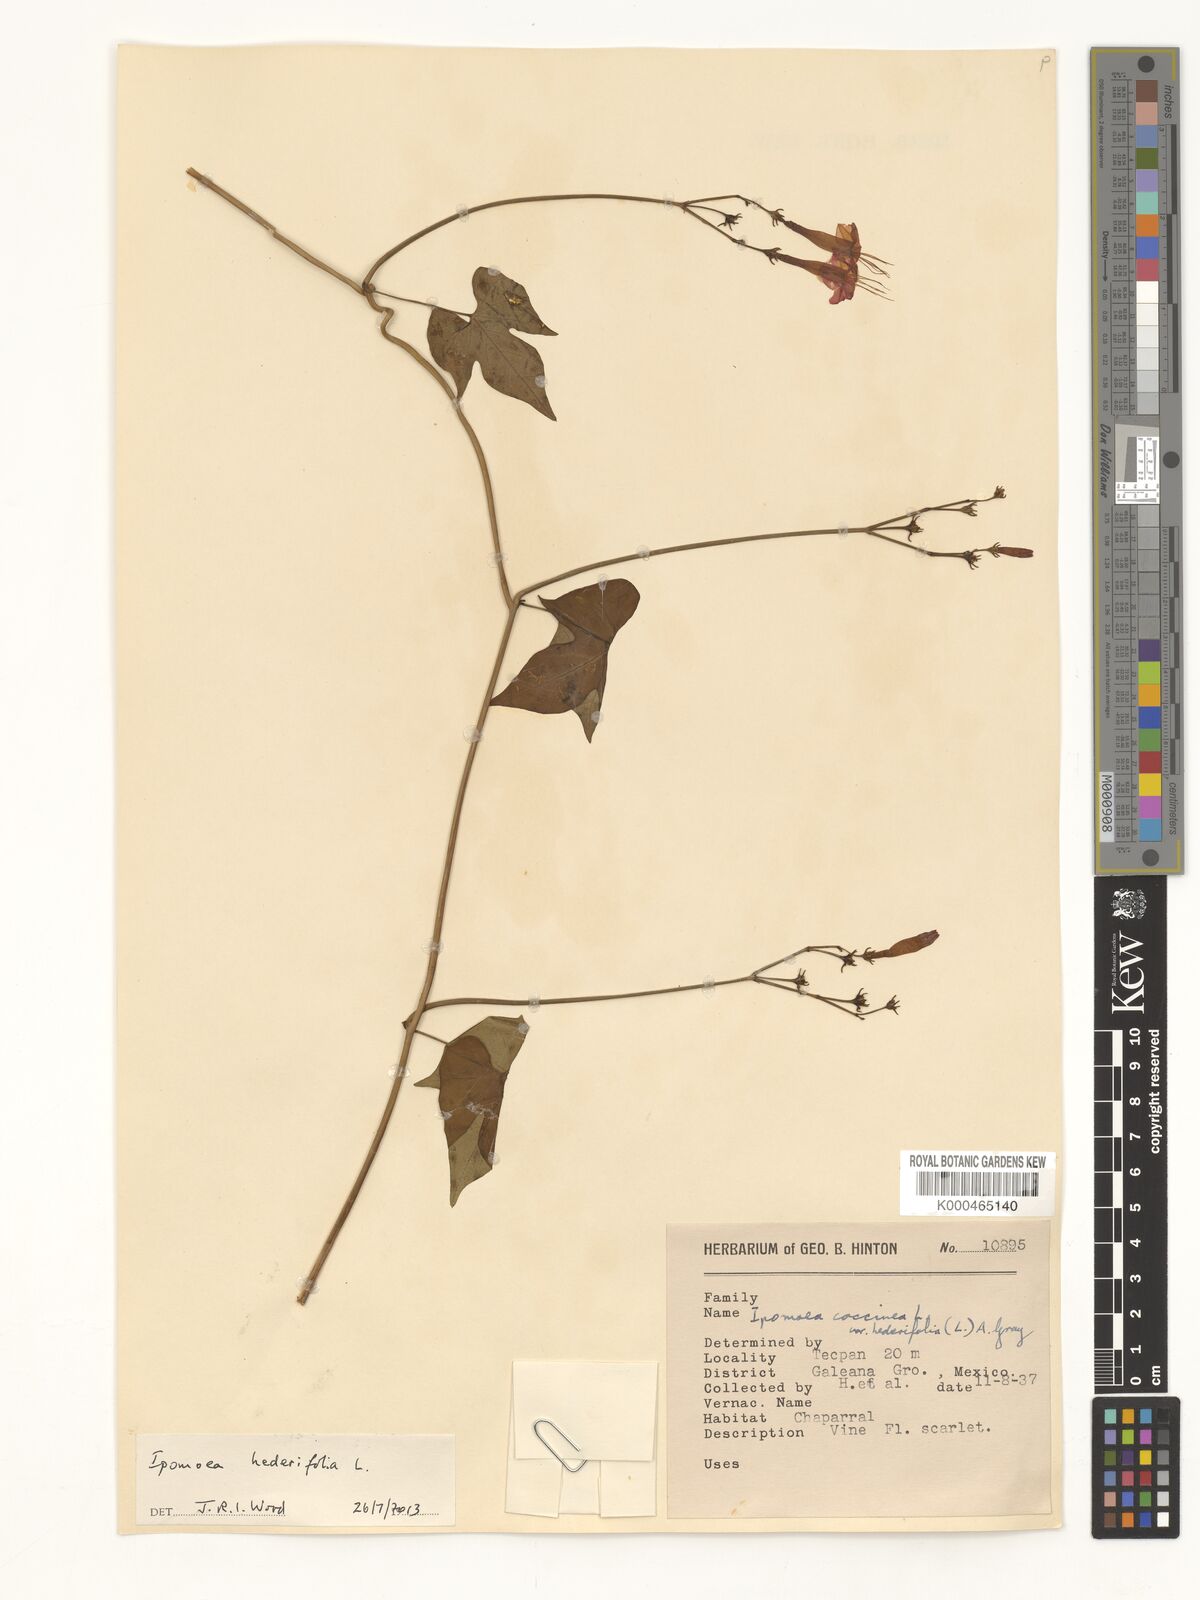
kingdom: Plantae
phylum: Tracheophyta
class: Magnoliopsida
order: Solanales
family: Convolvulaceae
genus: Ipomoea
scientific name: Ipomoea hederifolia
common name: Ivy-leaf morning-glory
